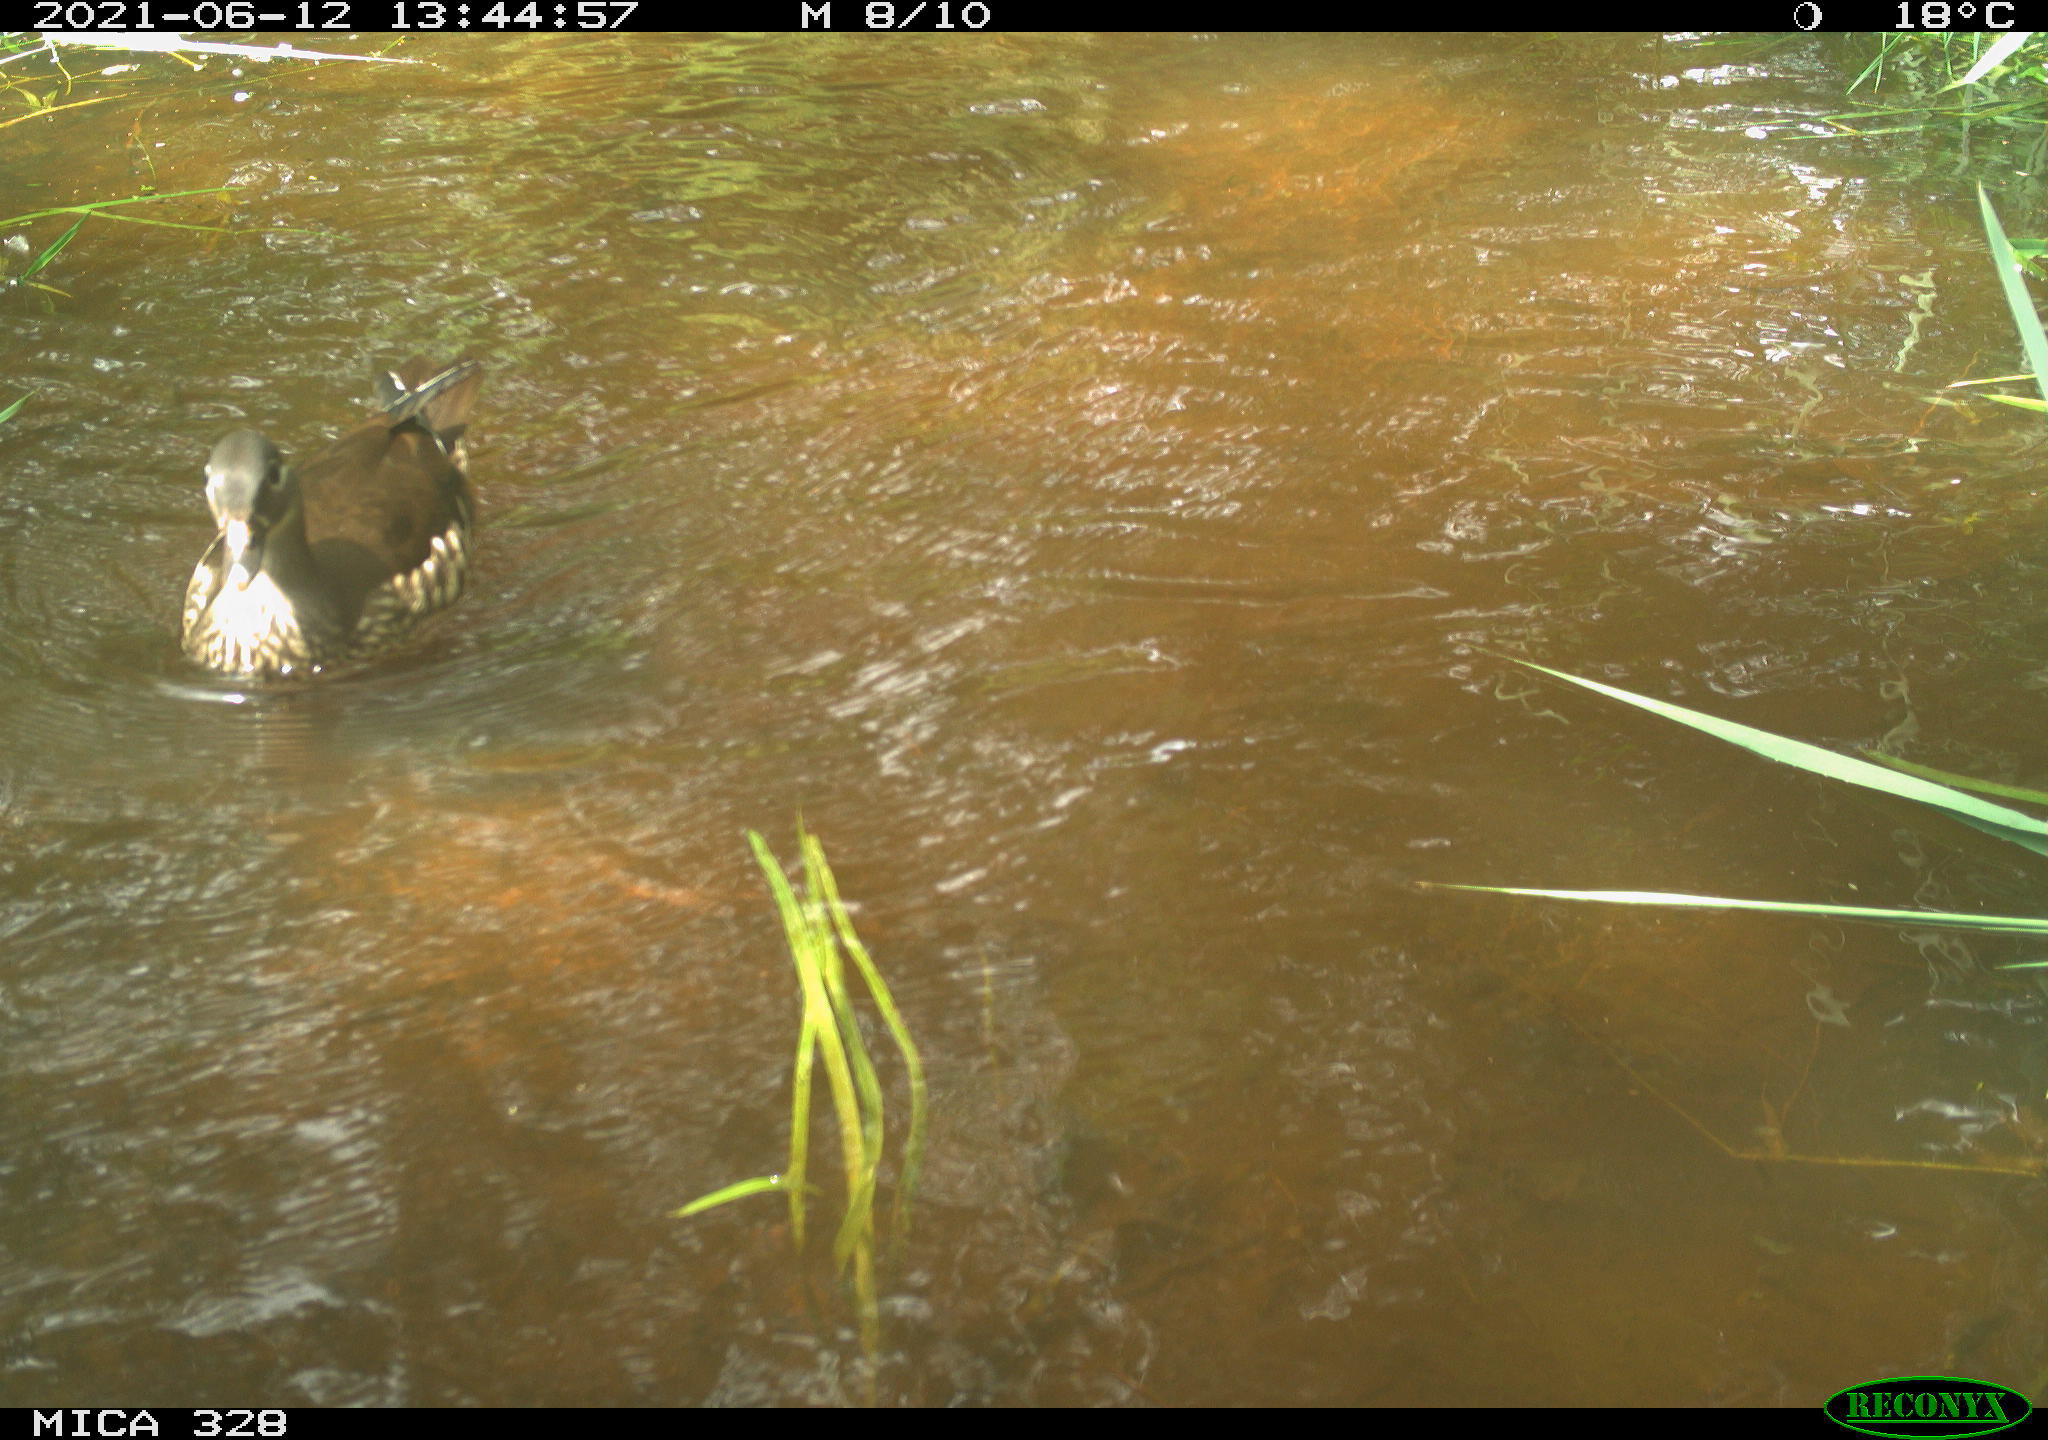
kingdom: Animalia
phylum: Chordata
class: Aves
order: Anseriformes
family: Anatidae
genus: Aix
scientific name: Aix galericulata
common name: Mandarin duck
